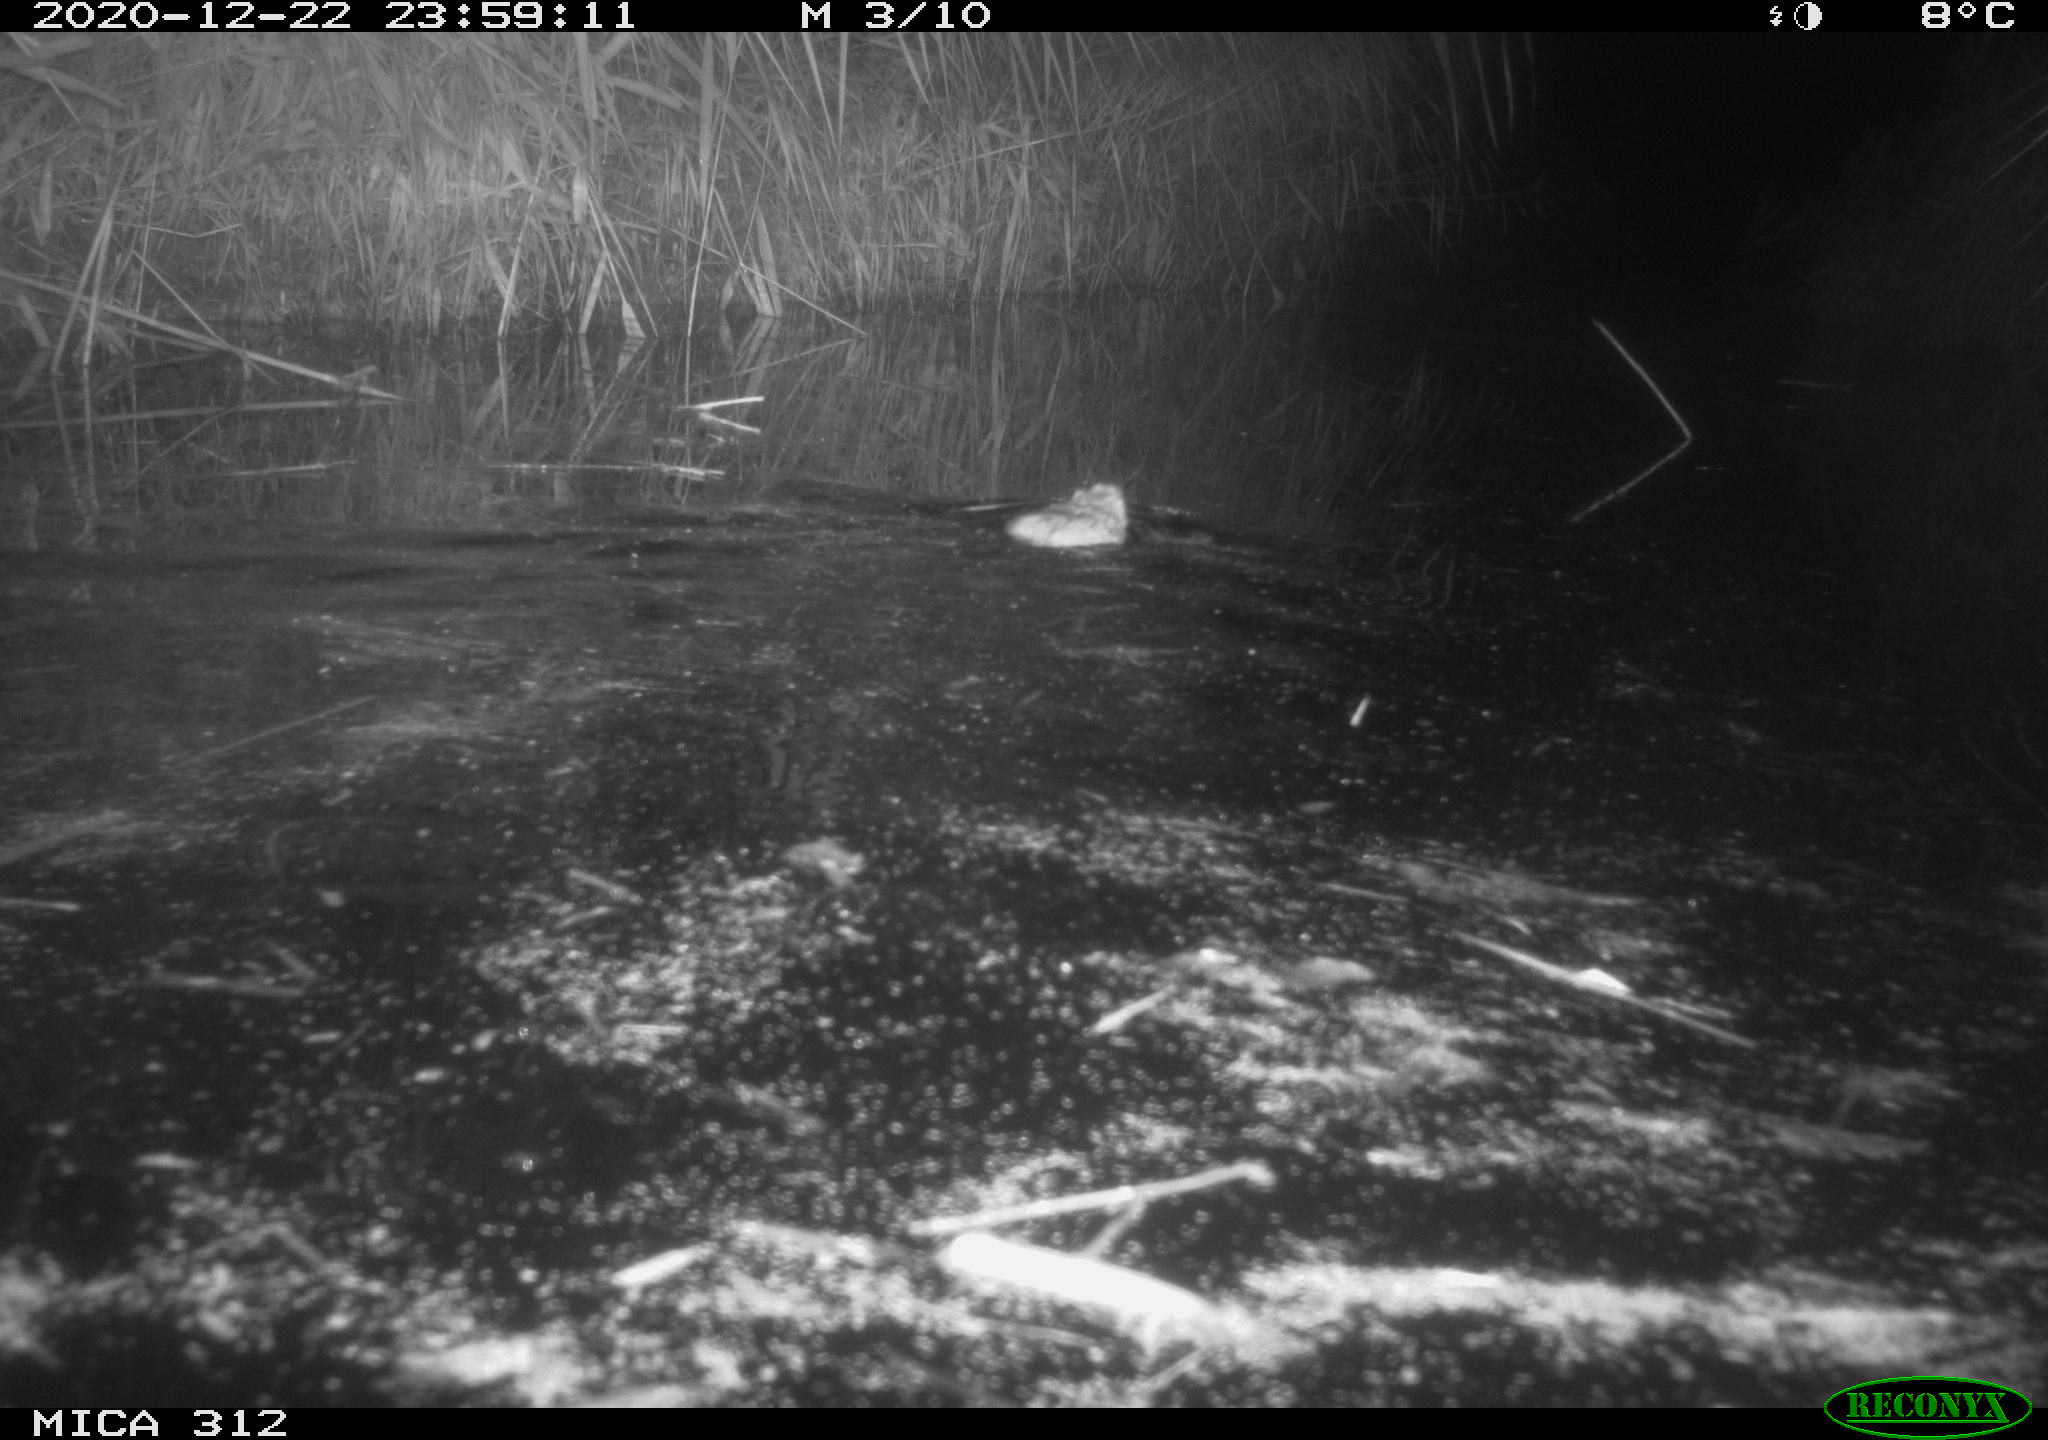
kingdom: Animalia
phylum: Chordata
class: Mammalia
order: Rodentia
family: Muridae
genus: Rattus
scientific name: Rattus norvegicus
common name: Brown rat
